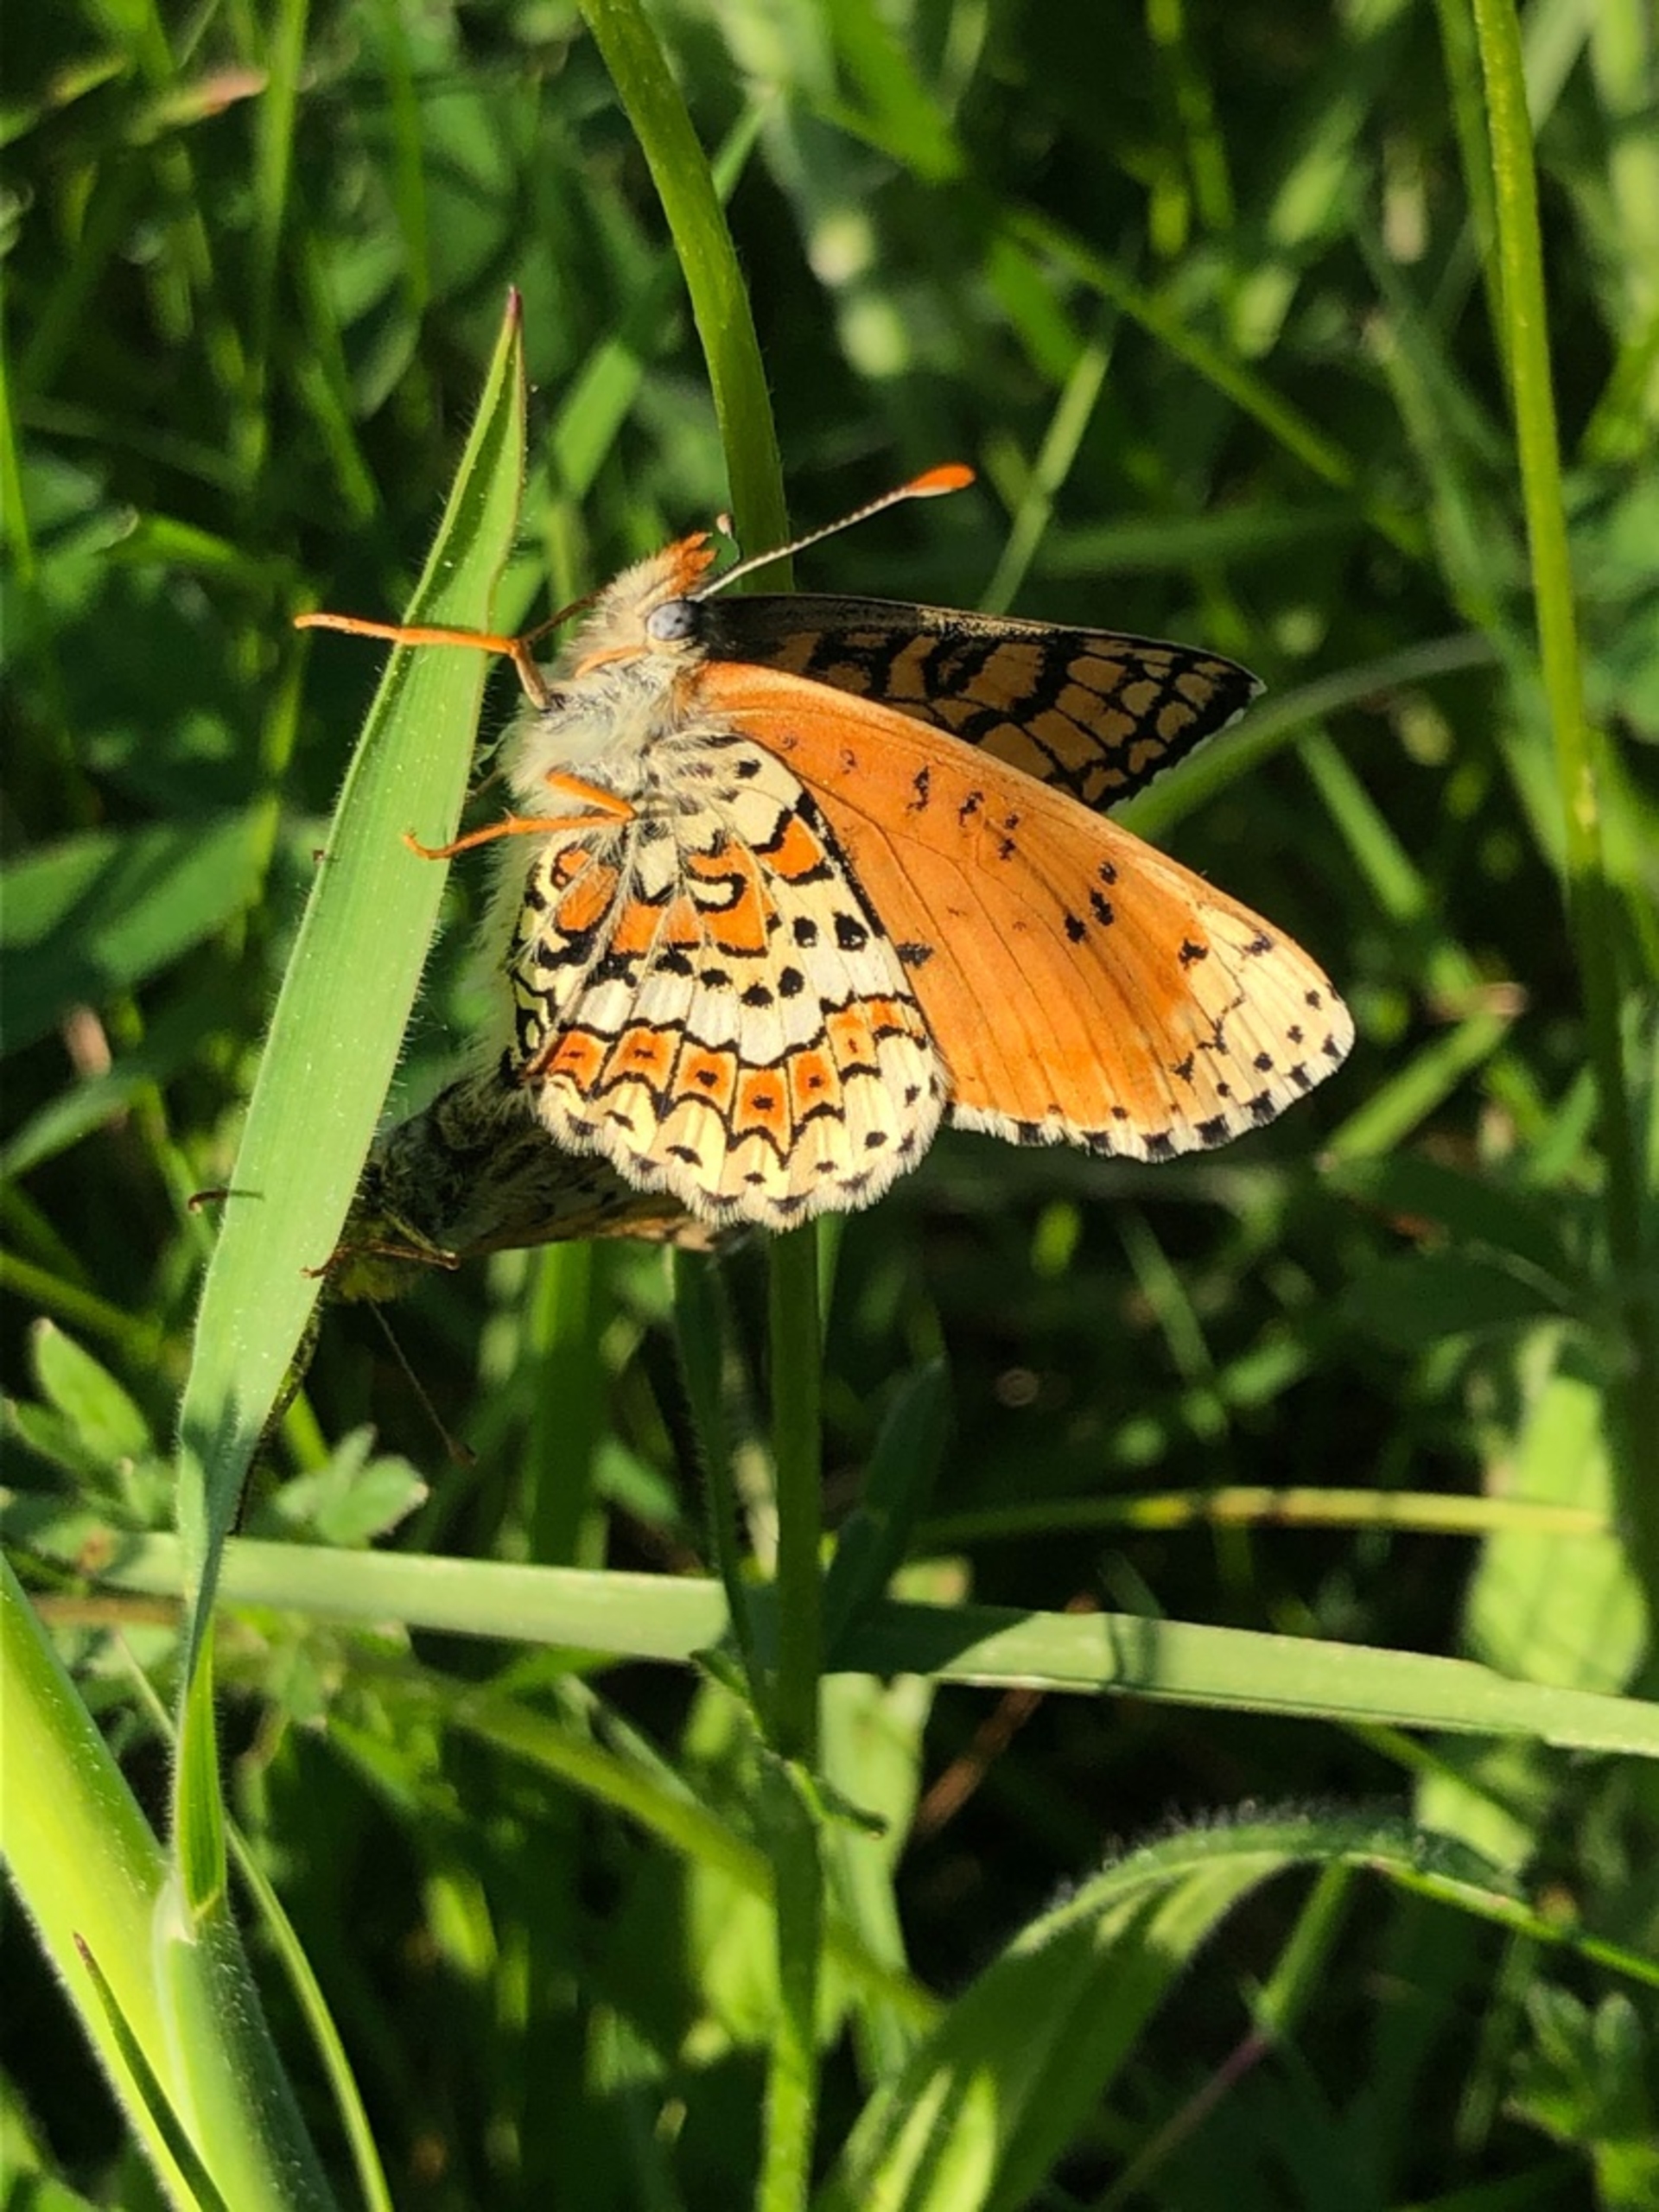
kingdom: Animalia
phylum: Arthropoda
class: Insecta
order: Lepidoptera
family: Nymphalidae
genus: Melitaea
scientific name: Melitaea cinxia
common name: Okkergul pletvinge
